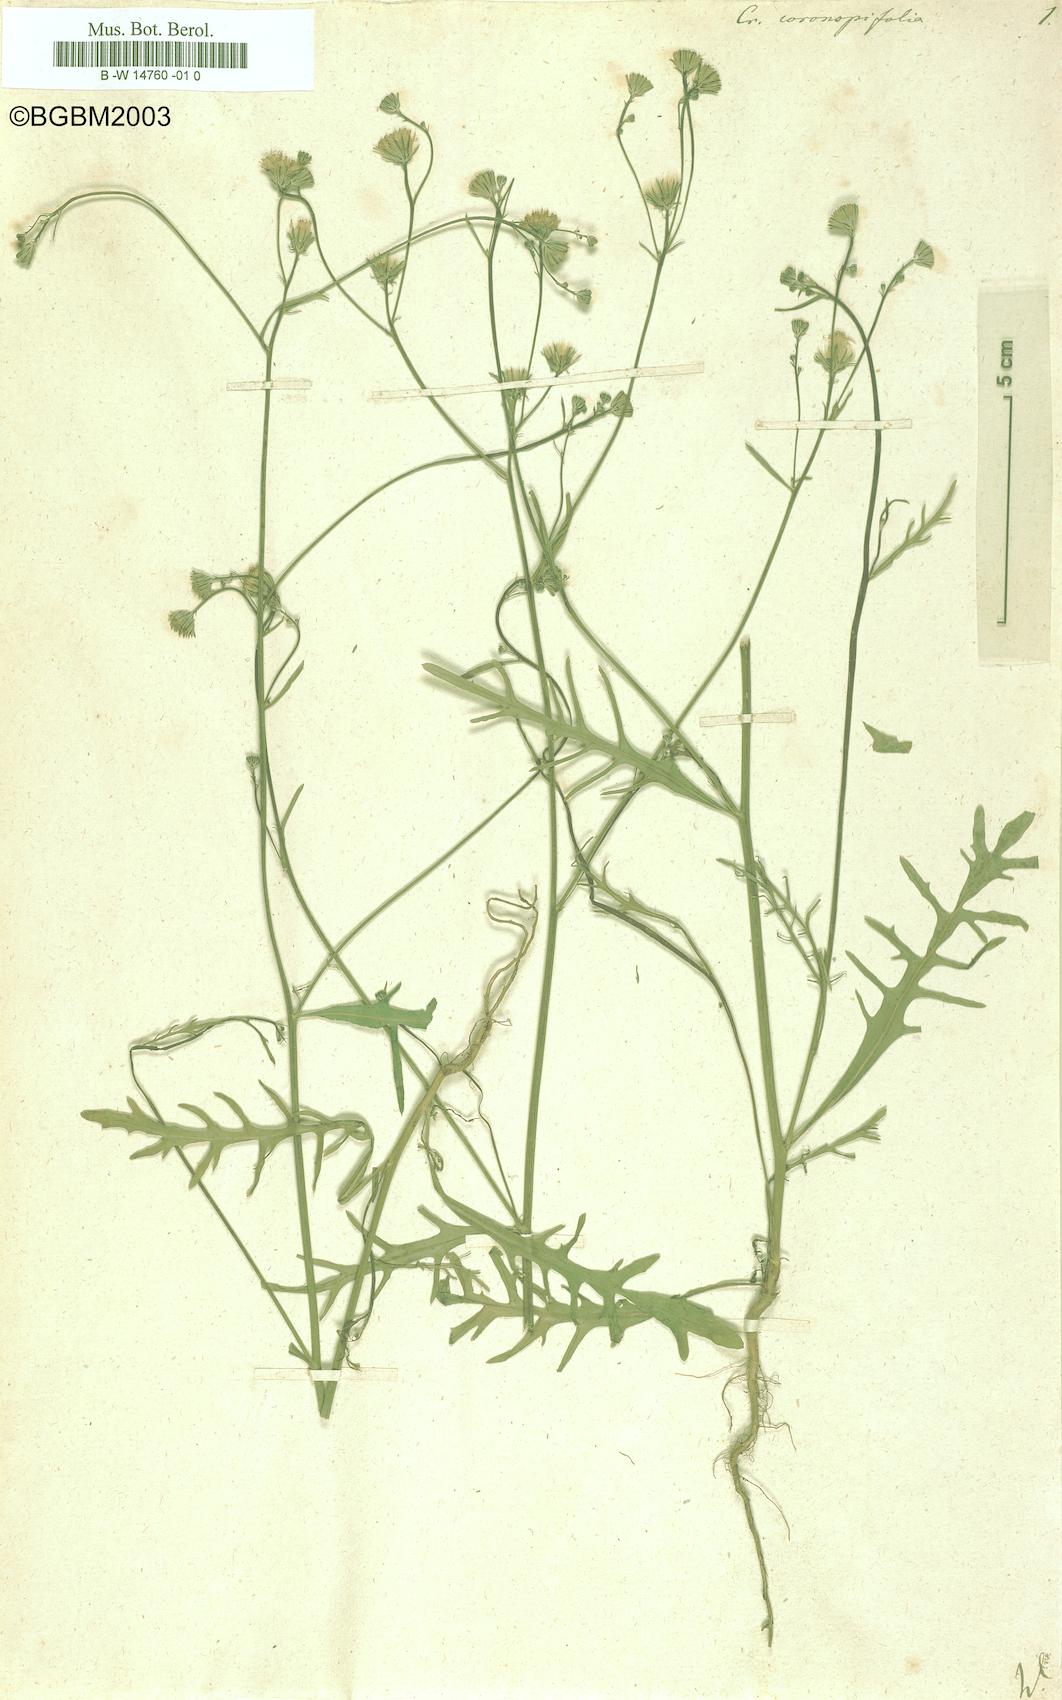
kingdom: Plantae
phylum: Tracheophyta
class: Magnoliopsida
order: Asterales
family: Asteraceae
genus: Tolpis
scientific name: Tolpis coronopifolia
